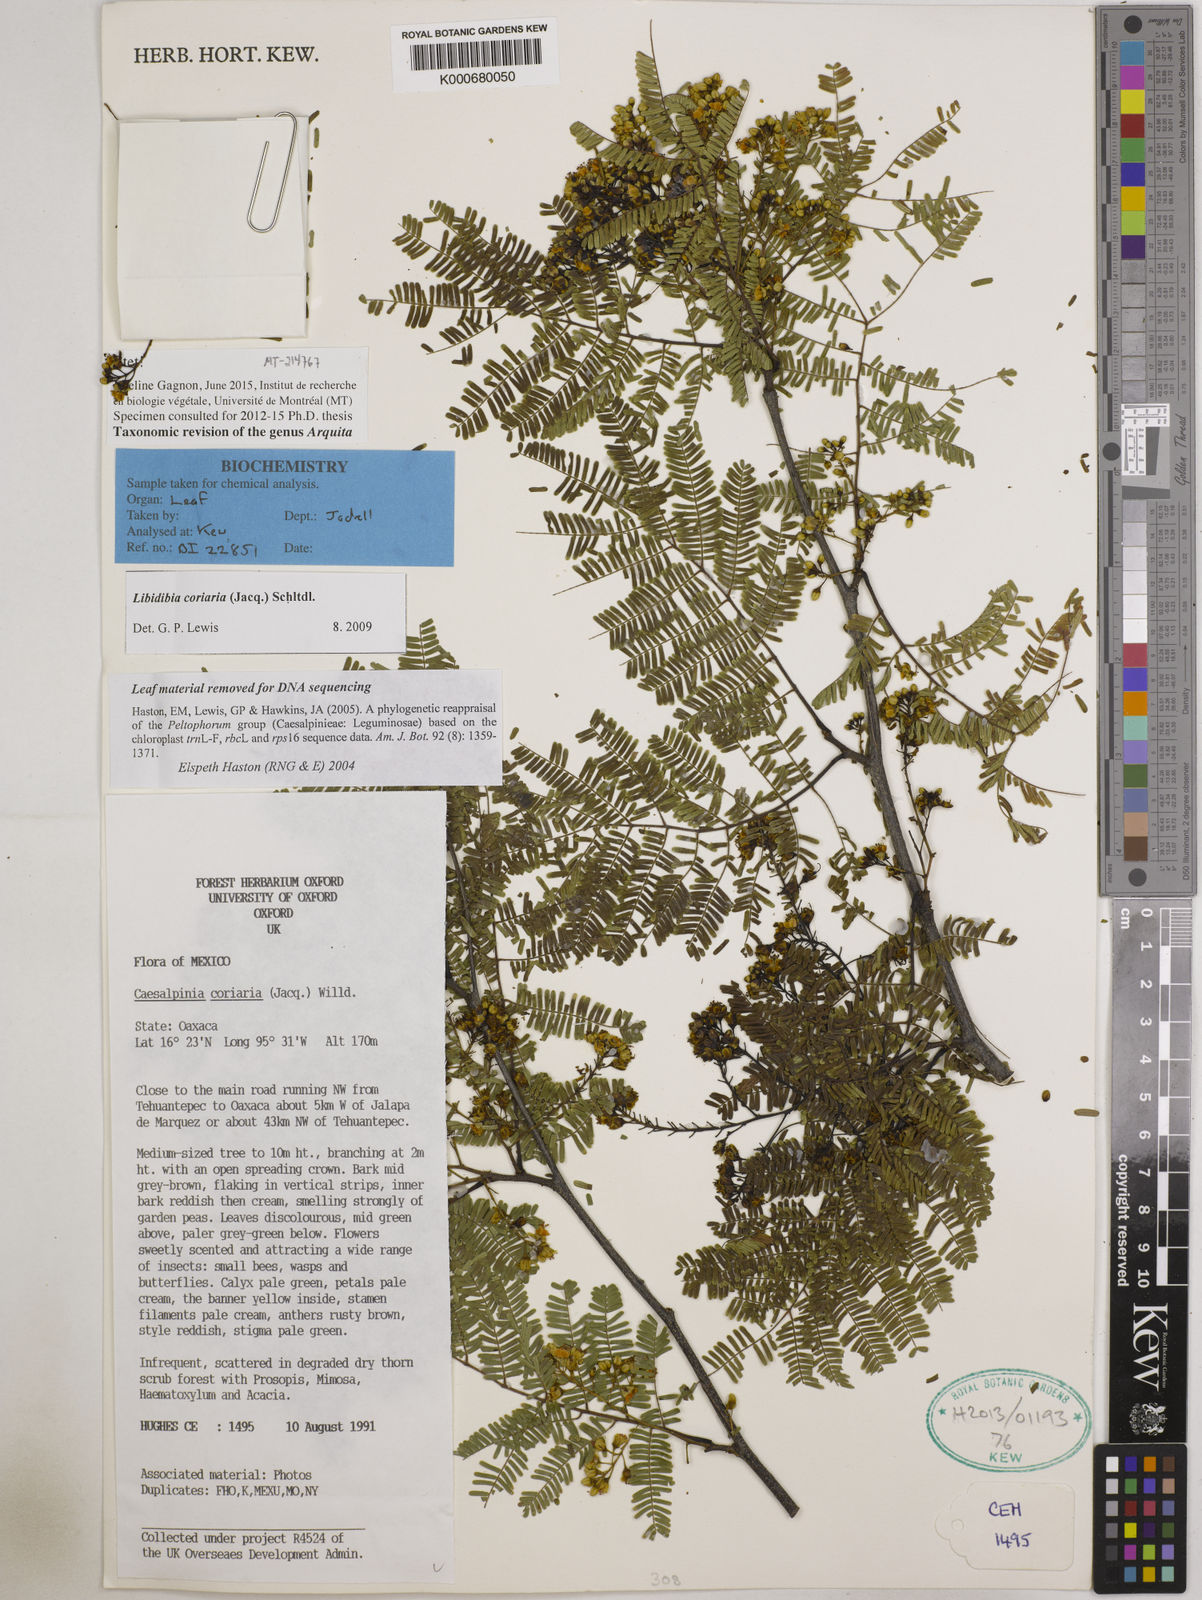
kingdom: Plantae
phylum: Tracheophyta
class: Magnoliopsida
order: Fabales
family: Fabaceae
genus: Libidibia
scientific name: Libidibia coriaria
